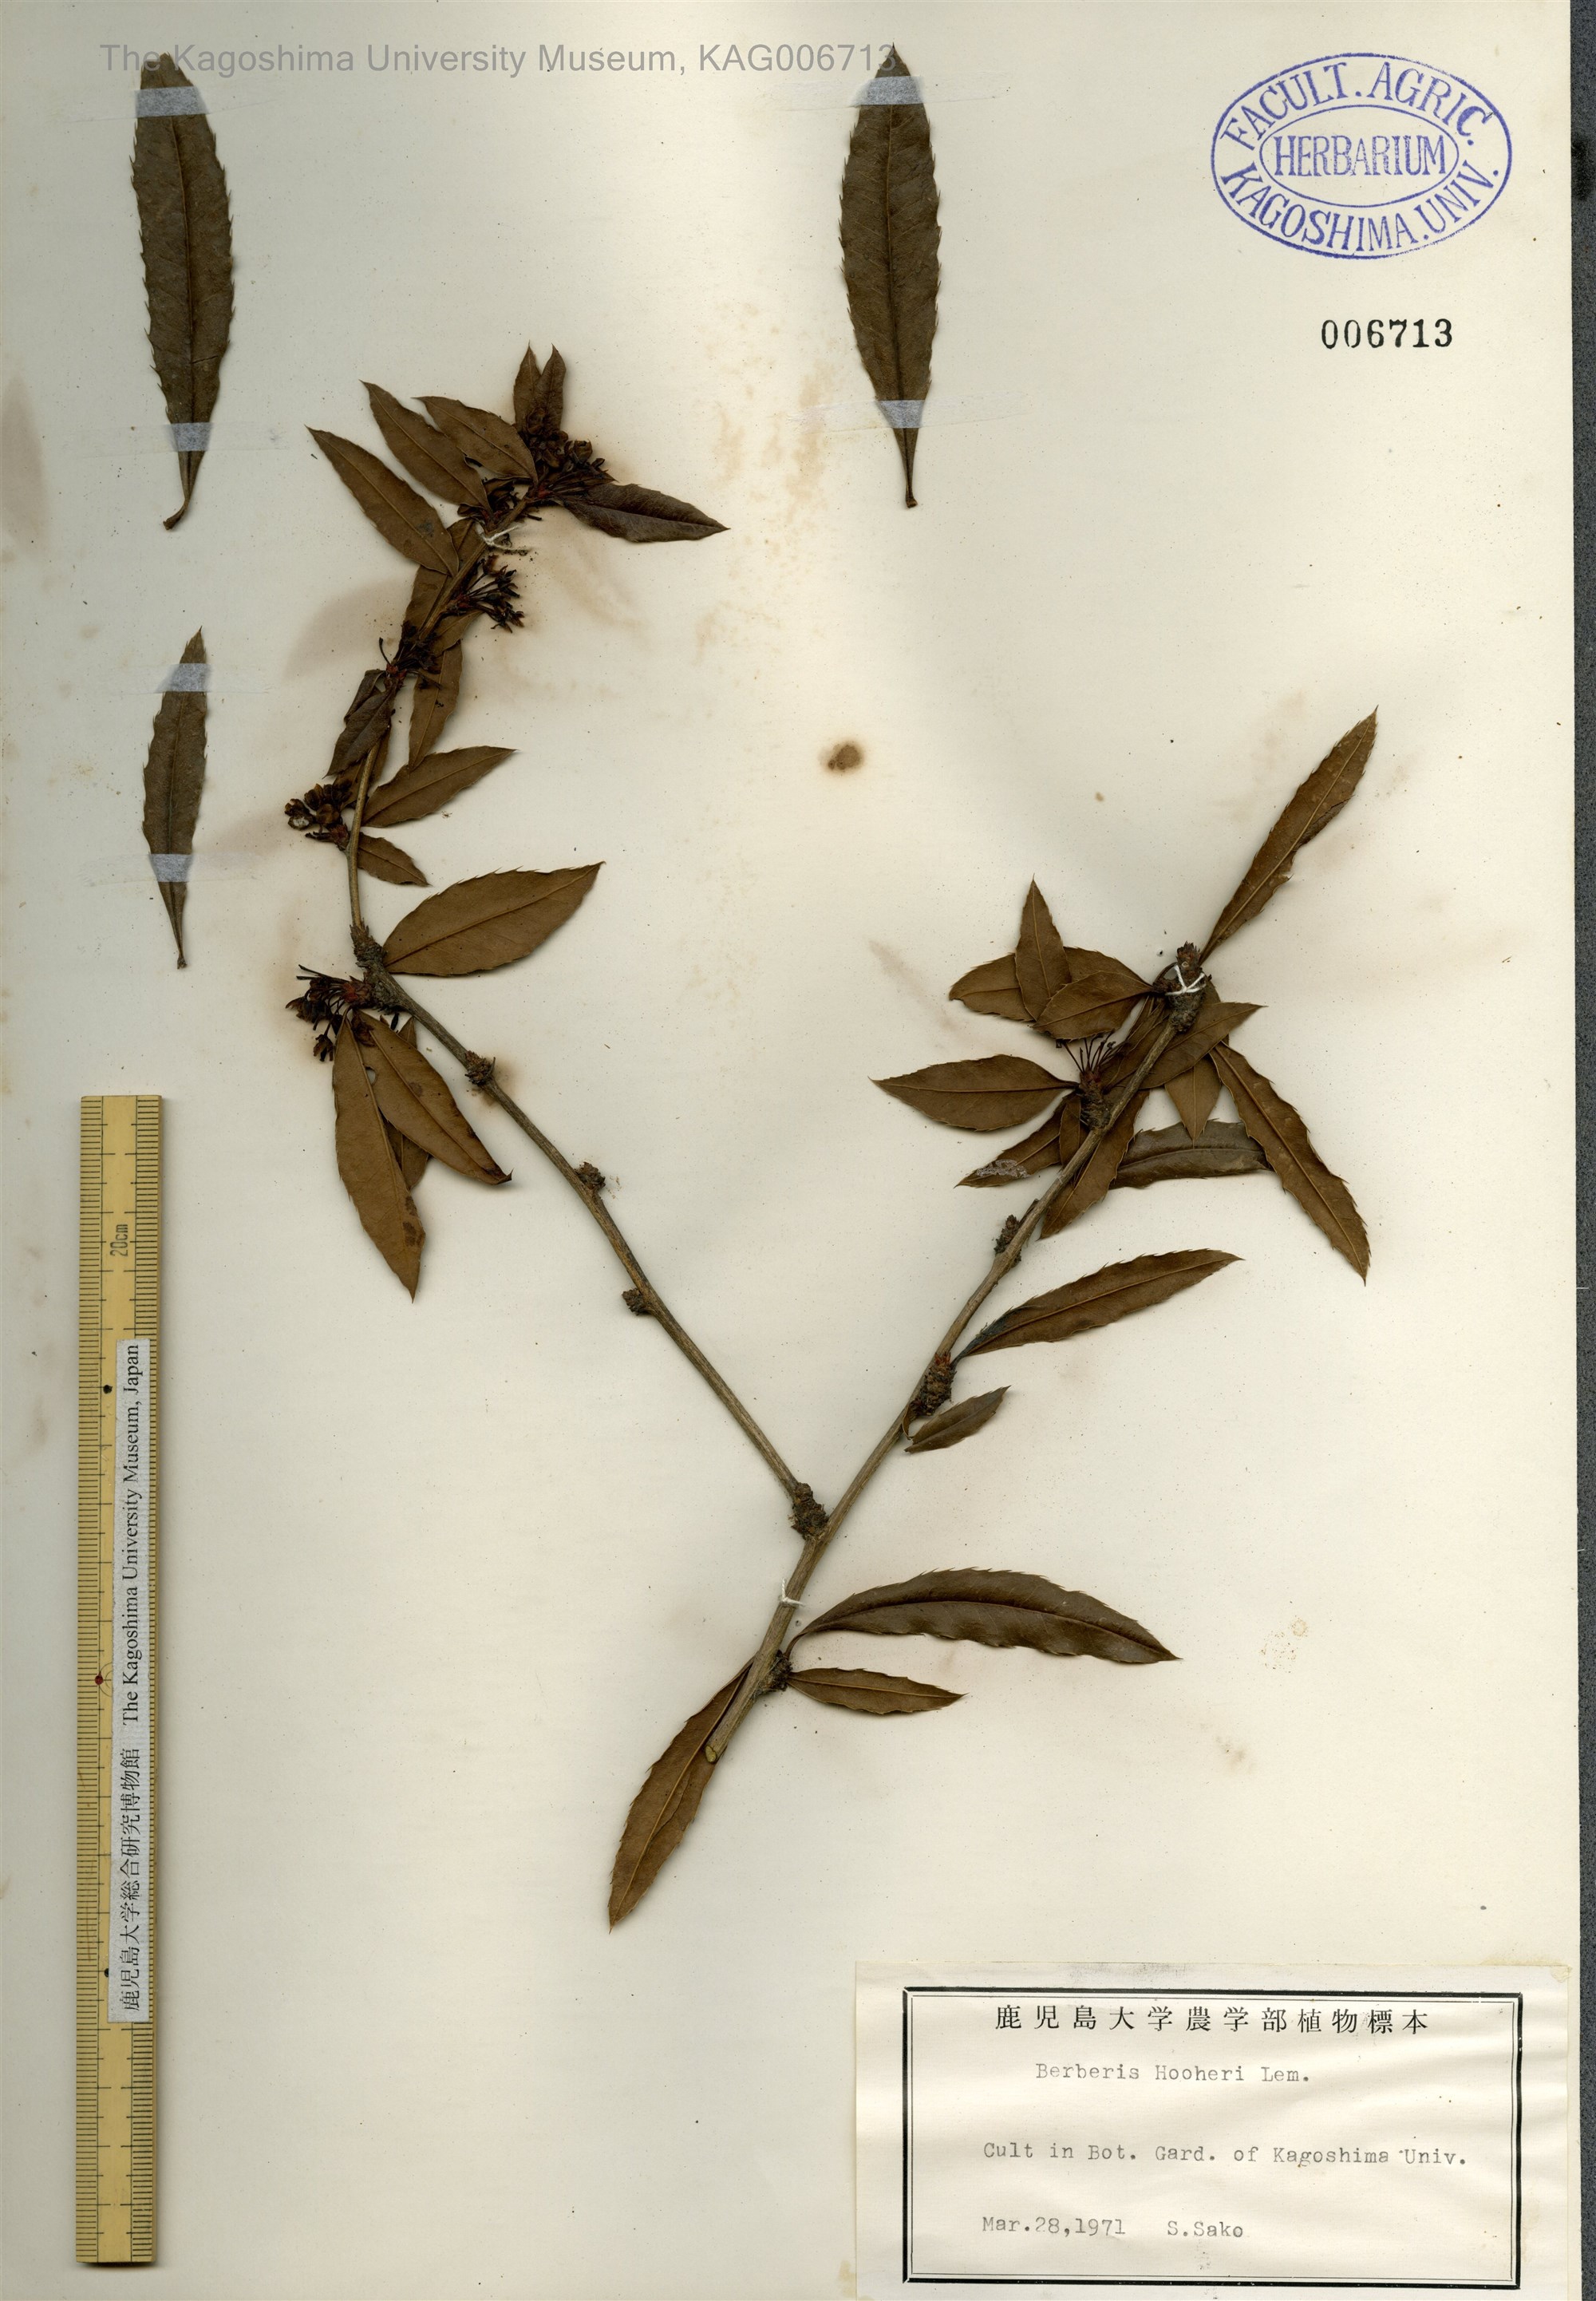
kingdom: Plantae
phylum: Tracheophyta
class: Magnoliopsida
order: Ranunculales
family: Berberidaceae
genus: Berberis
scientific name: Berberis hookeri
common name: Hooker's barberry
